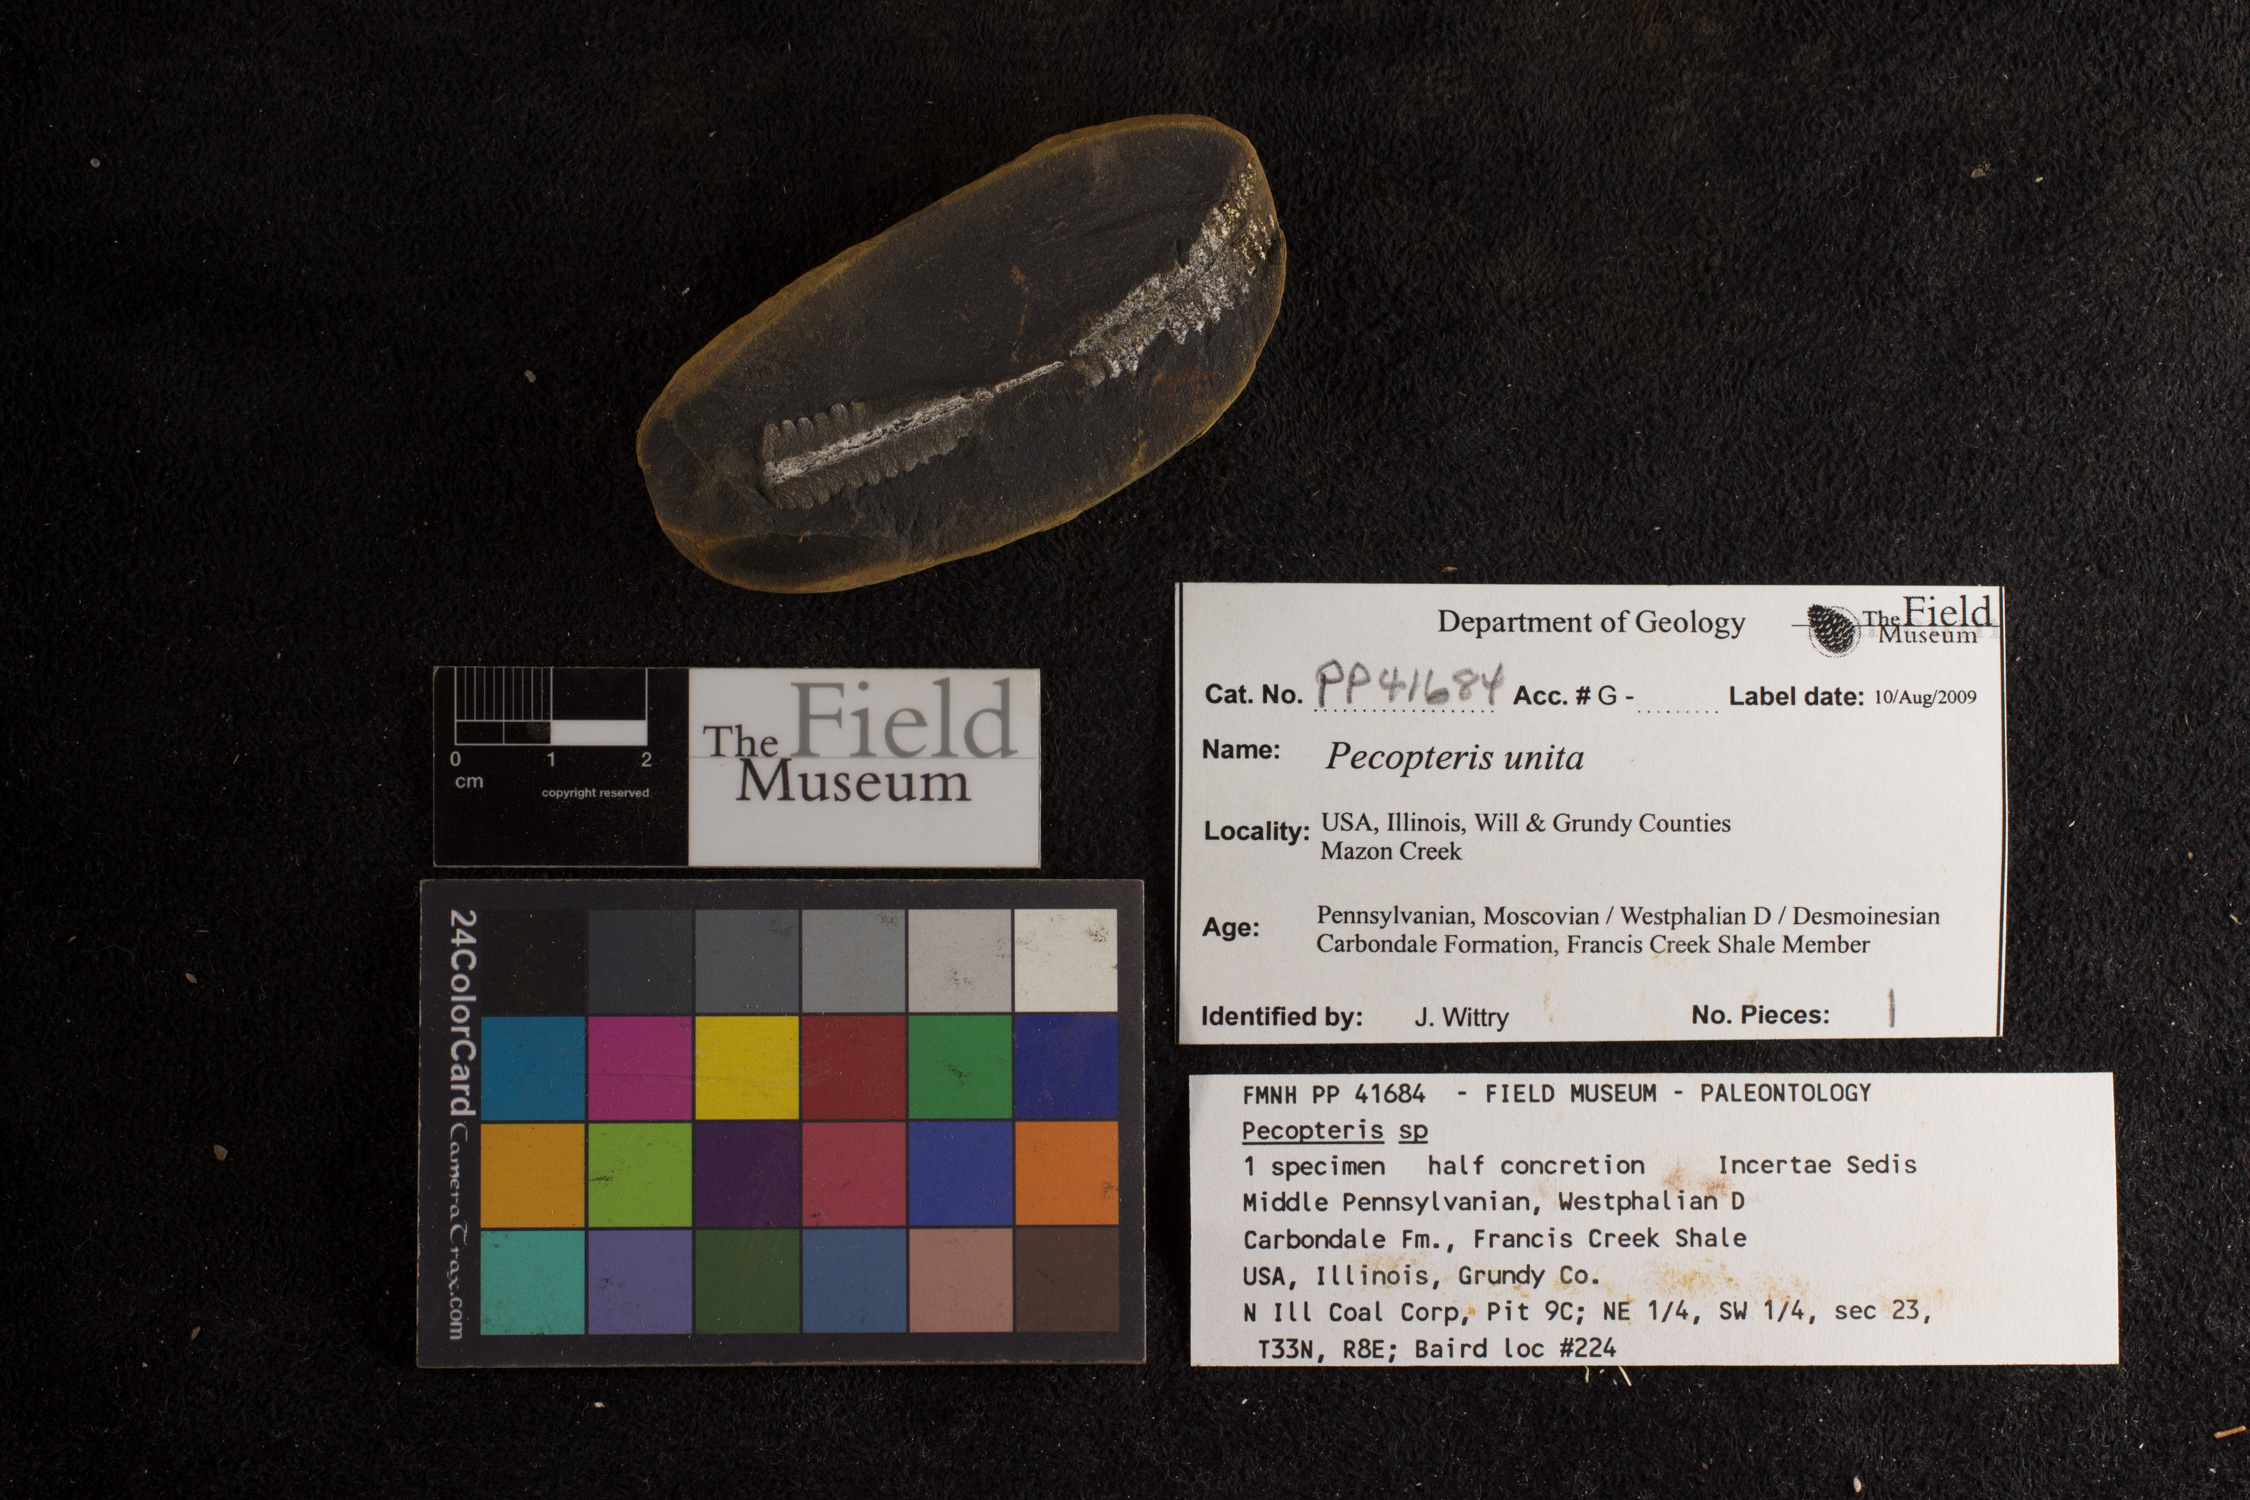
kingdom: Plantae
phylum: Tracheophyta
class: Polypodiopsida
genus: Diplazites
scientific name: Diplazites
